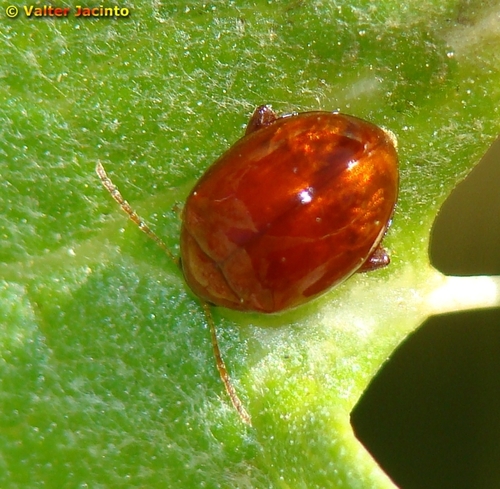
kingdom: Animalia
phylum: Arthropoda
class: Insecta
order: Coleoptera
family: Chrysomelidae
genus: Pistosia
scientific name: Pistosia testacea
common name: Leaf beetle
